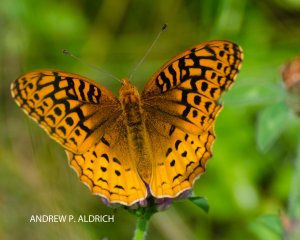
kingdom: Animalia
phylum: Arthropoda
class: Insecta
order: Lepidoptera
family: Nymphalidae
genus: Speyeria
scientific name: Speyeria cybele
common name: Great Spangled Fritillary
